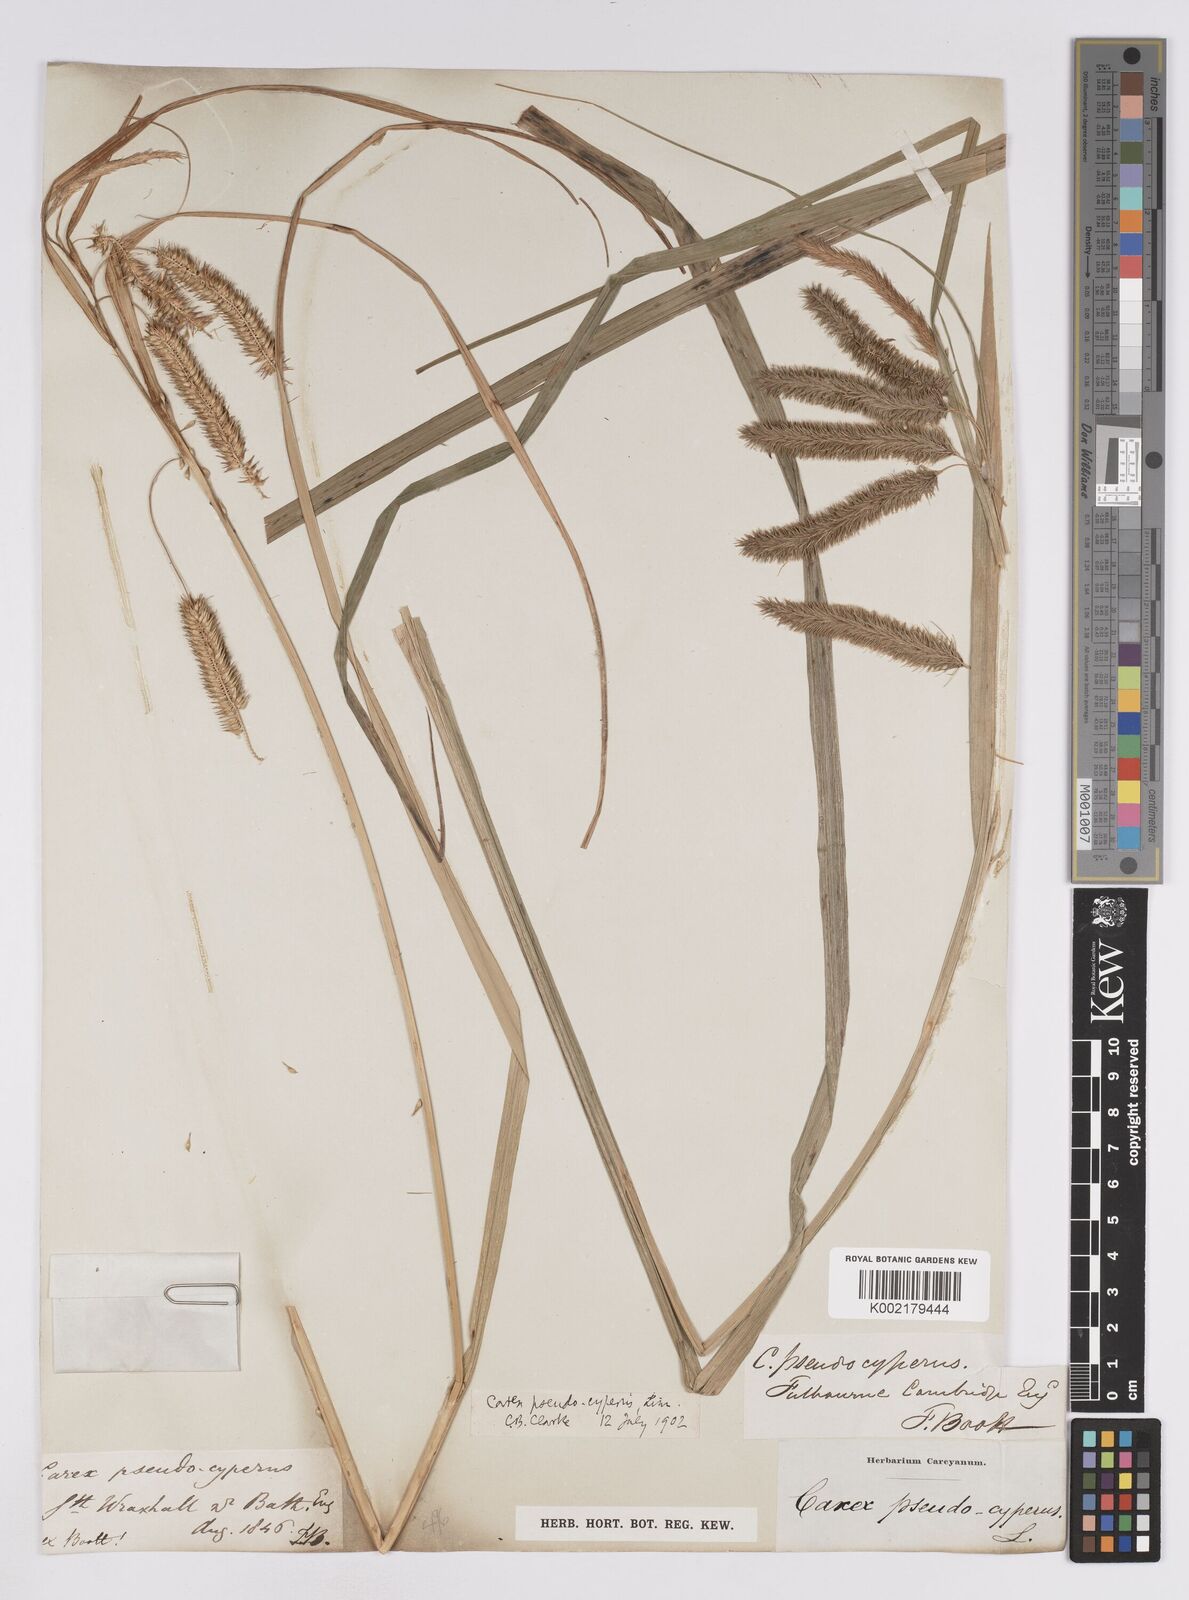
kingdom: Plantae
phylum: Tracheophyta
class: Liliopsida
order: Poales
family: Cyperaceae
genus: Carex
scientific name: Carex pseudocyperus
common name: Cyperus sedge
